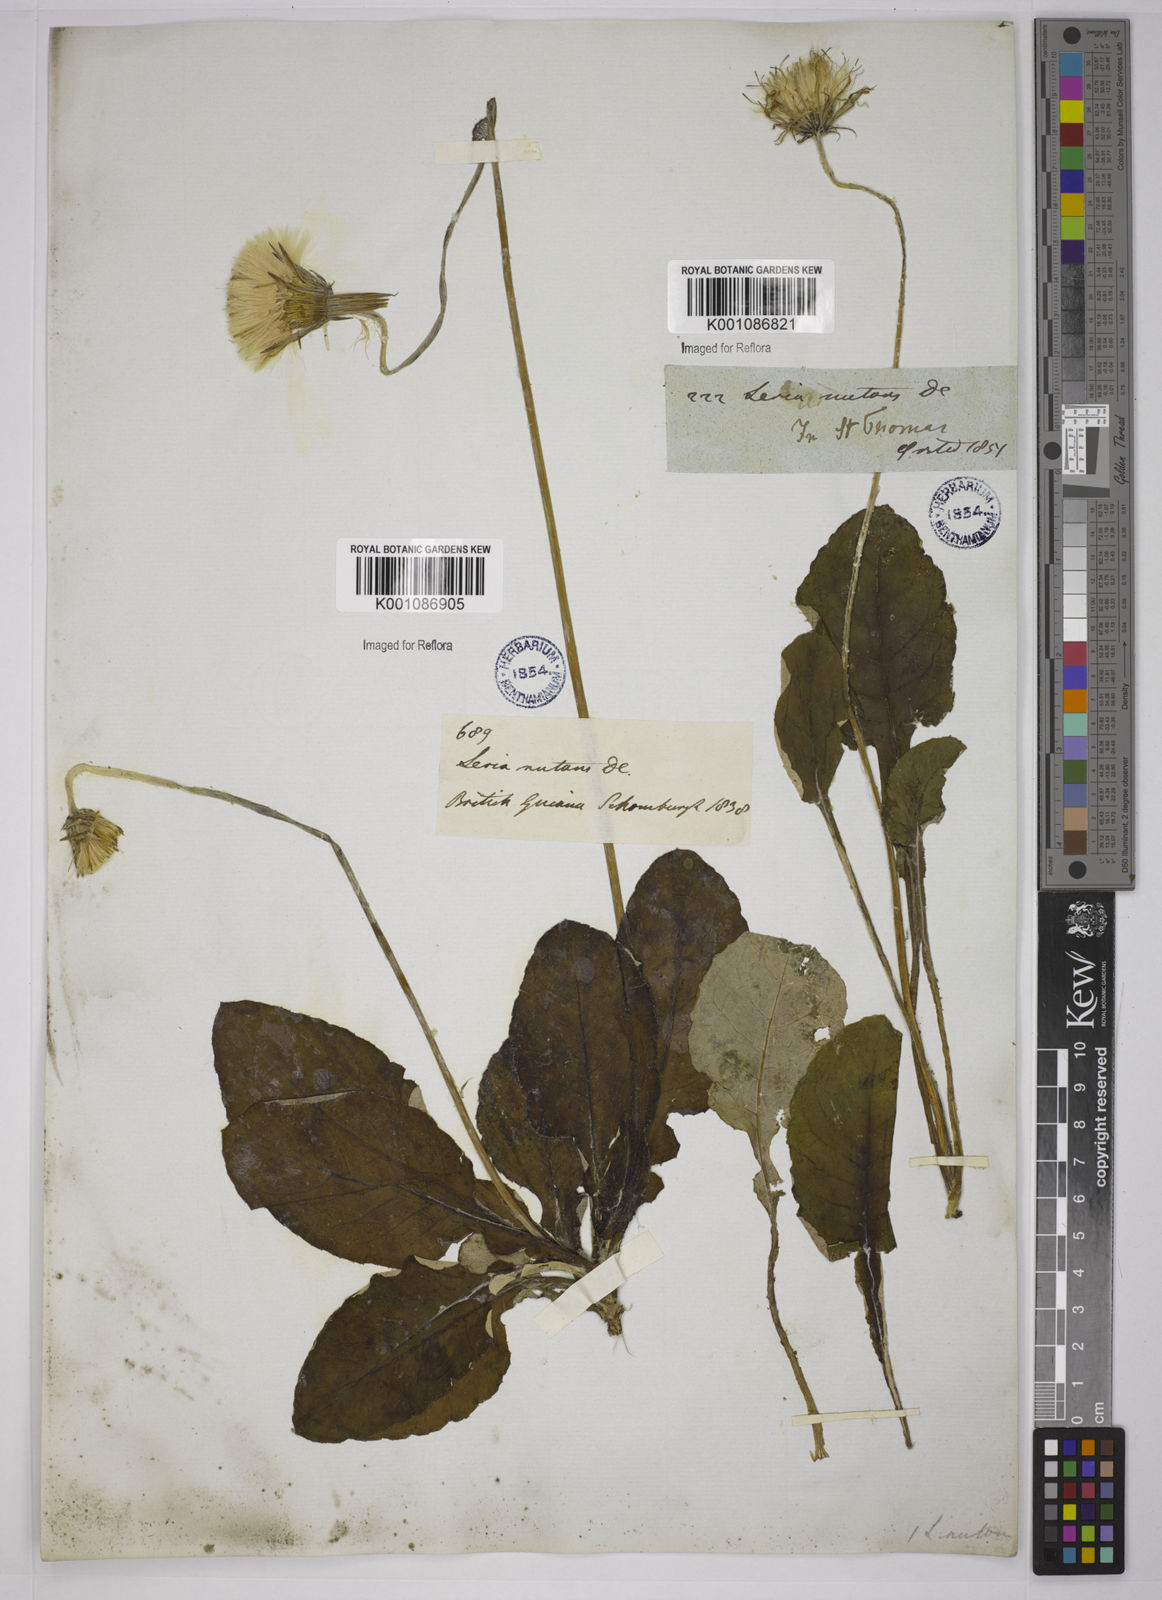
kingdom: Plantae
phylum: Tracheophyta
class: Magnoliopsida
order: Asterales
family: Asteraceae
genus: Chaptalia
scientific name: Chaptalia nutans
